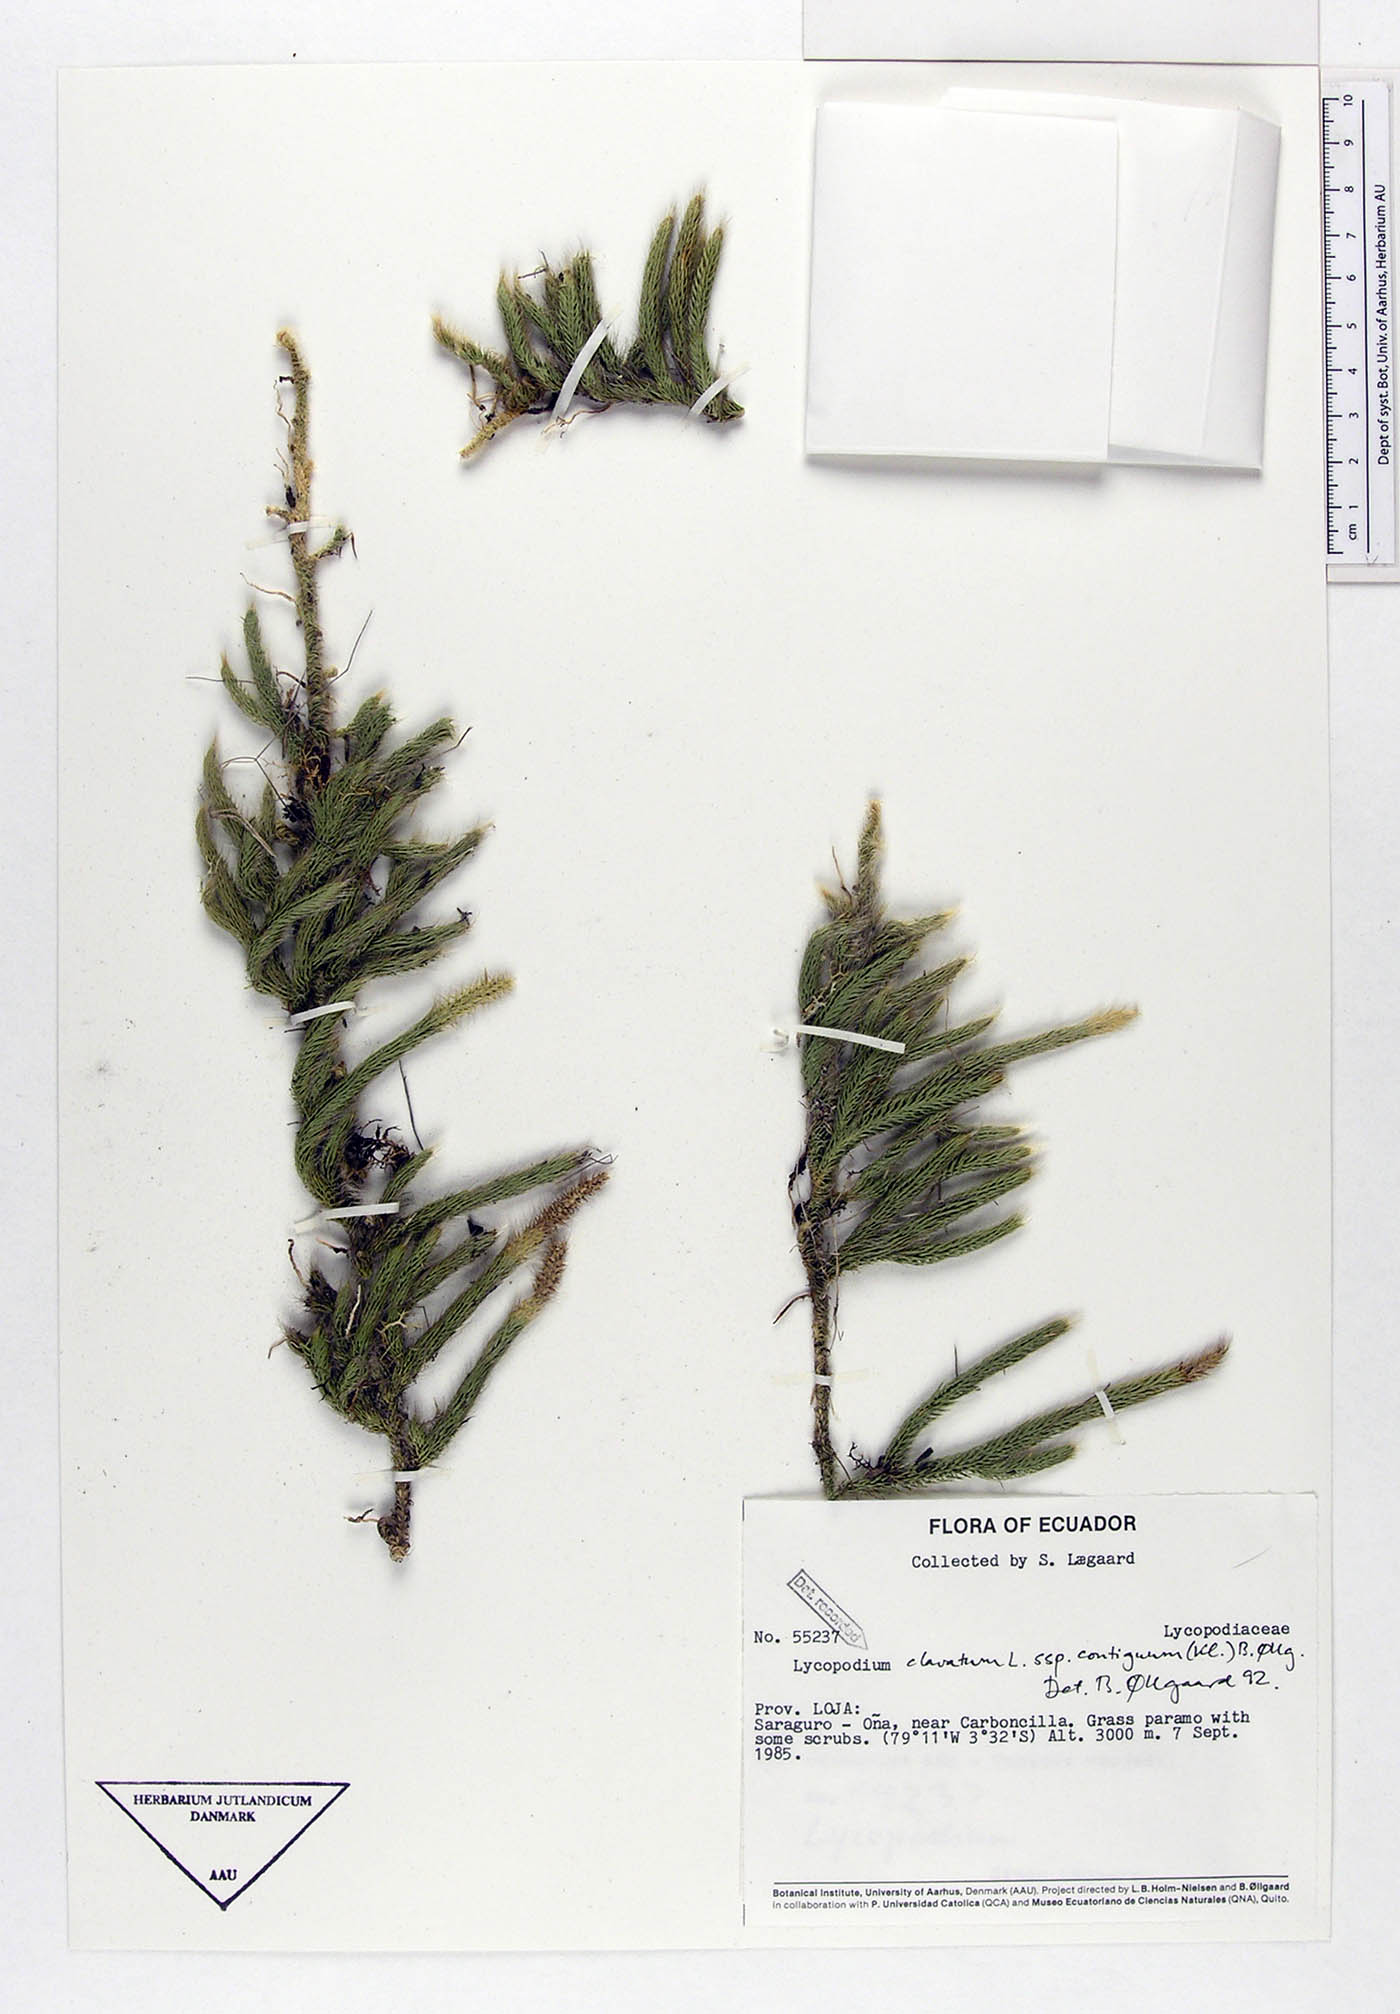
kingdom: Plantae
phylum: Tracheophyta
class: Lycopodiopsida
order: Lycopodiales
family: Lycopodiaceae
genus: Lycopodium
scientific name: Lycopodium clavatum
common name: Stag's-horn clubmoss
